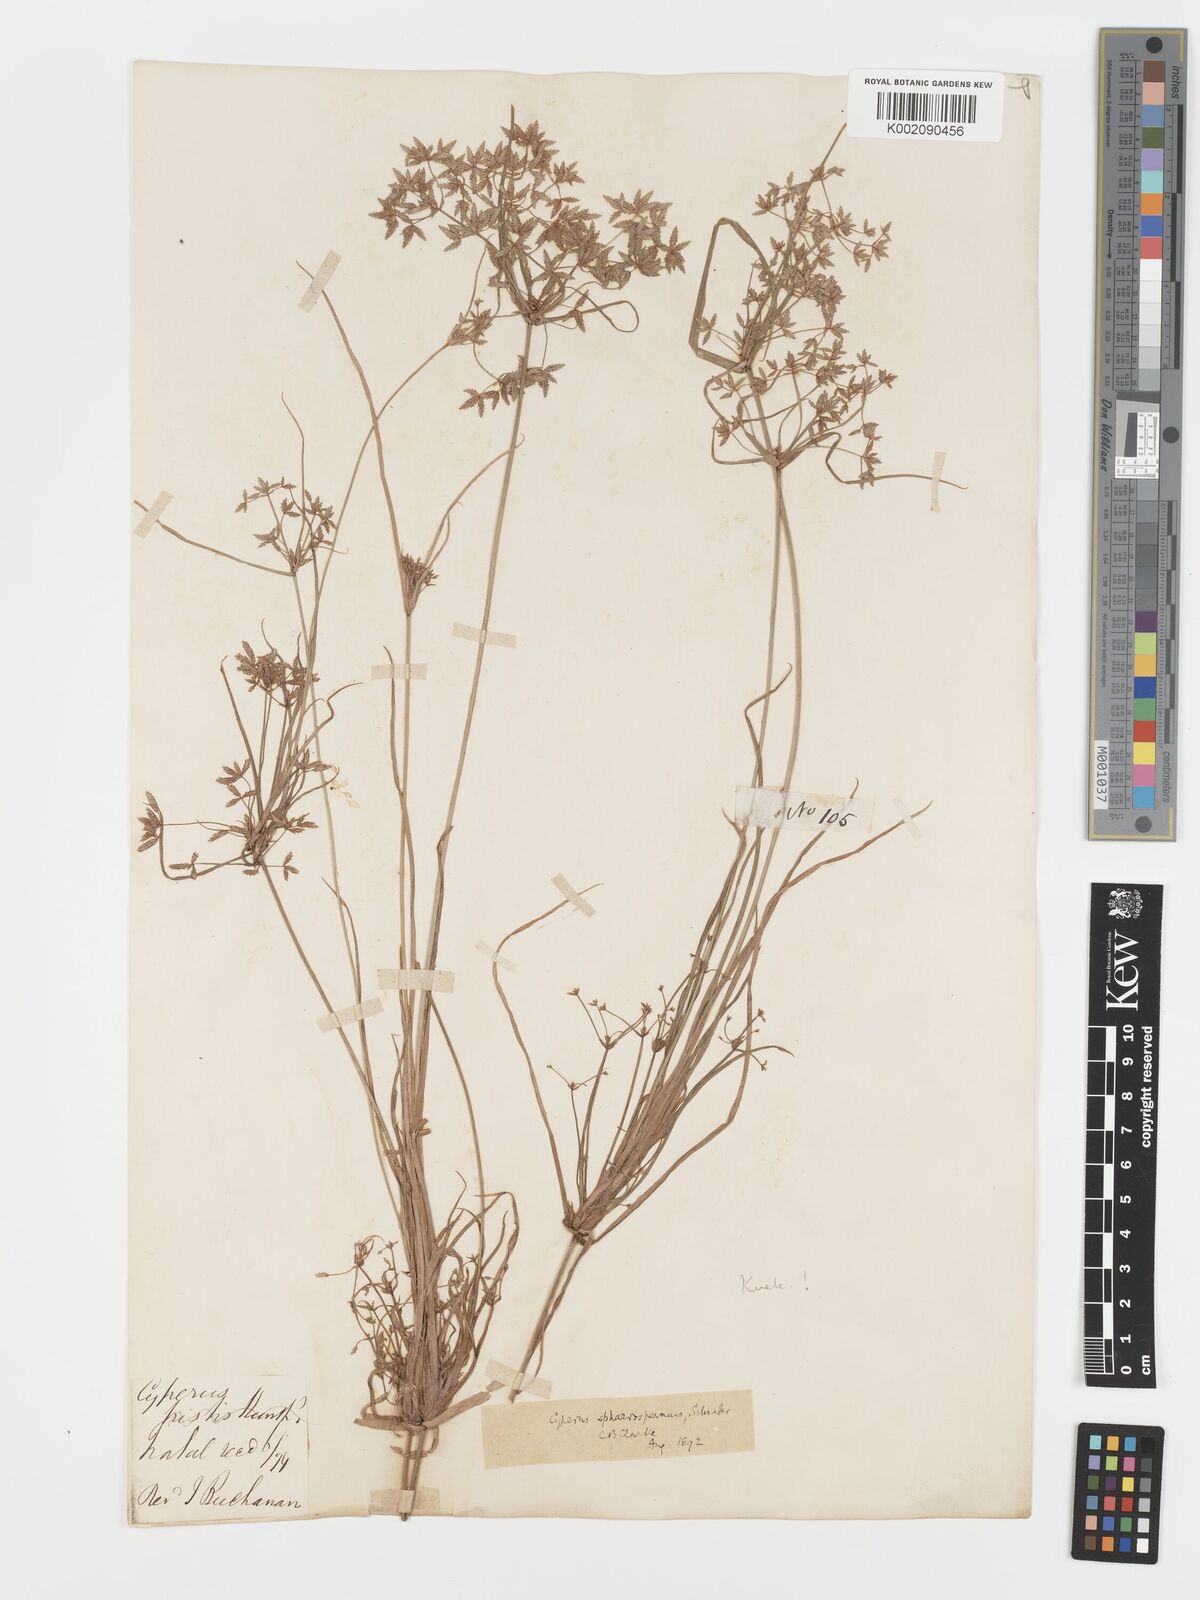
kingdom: Plantae
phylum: Tracheophyta
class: Liliopsida
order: Poales
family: Cyperaceae
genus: Cyperus
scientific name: Cyperus sphaerospermus
